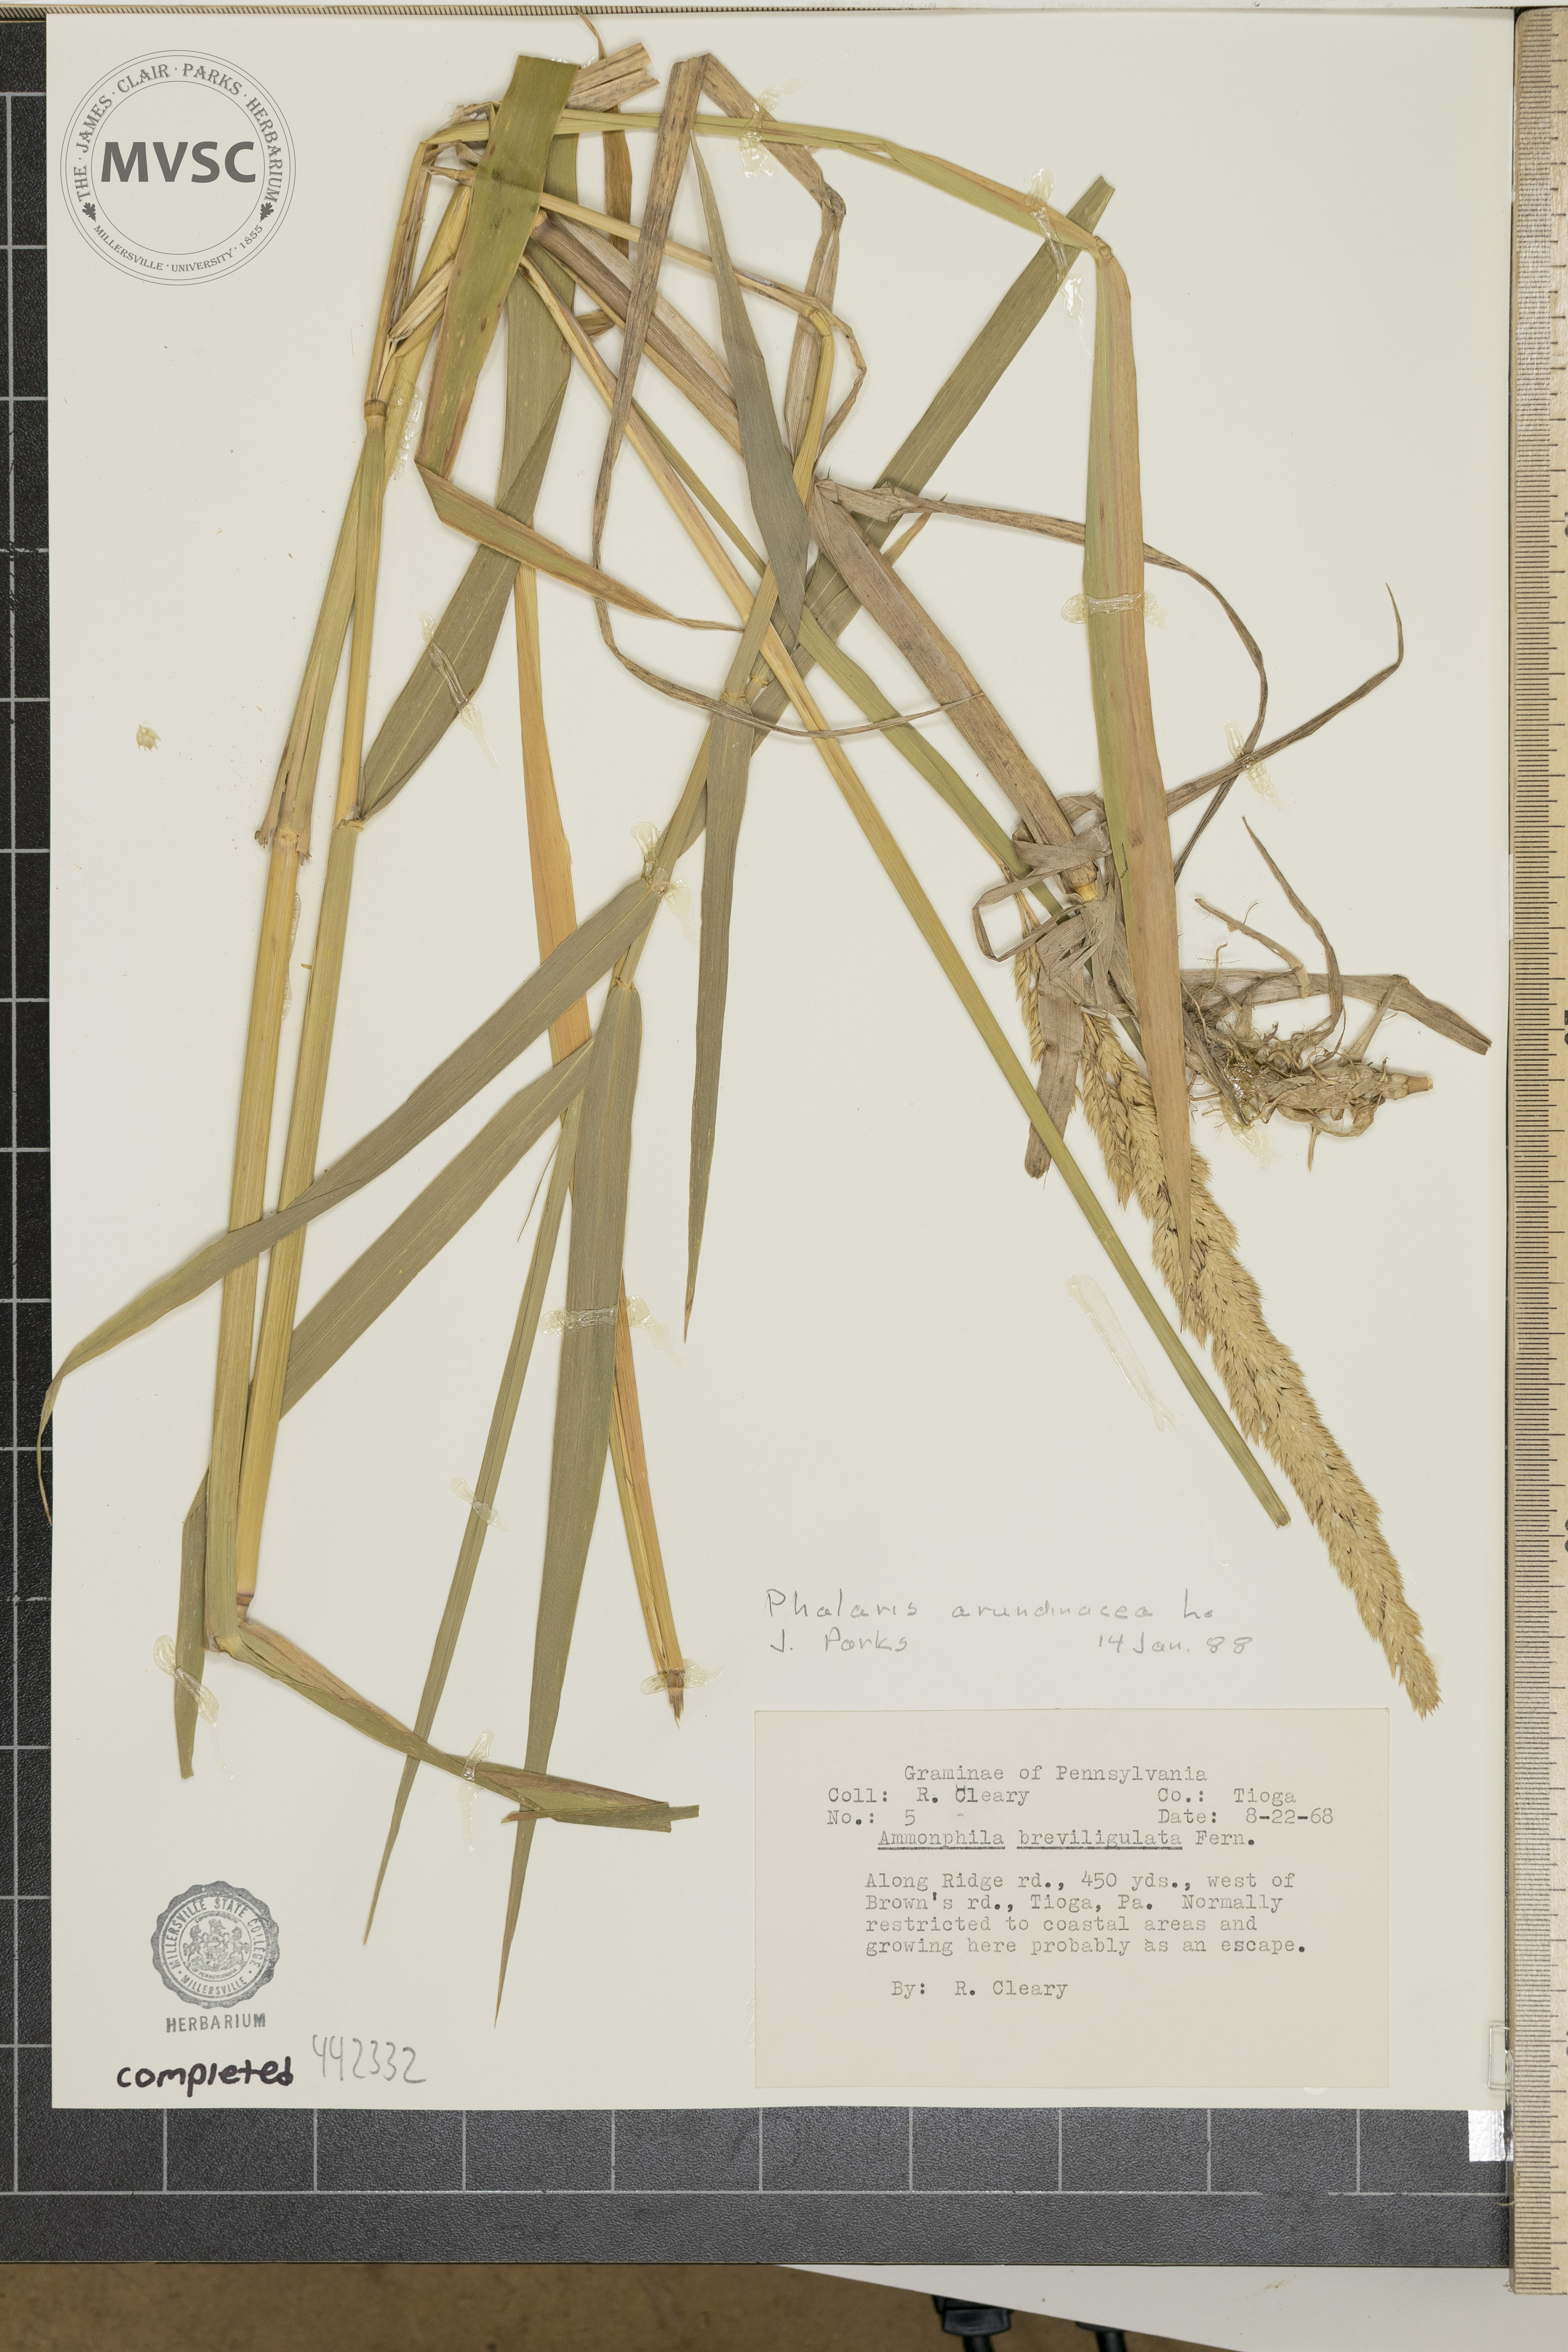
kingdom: Plantae
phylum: Tracheophyta
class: Liliopsida
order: Poales
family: Poaceae
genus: Phalaris
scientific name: Phalaris arundinacea
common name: Reed canary-grass
